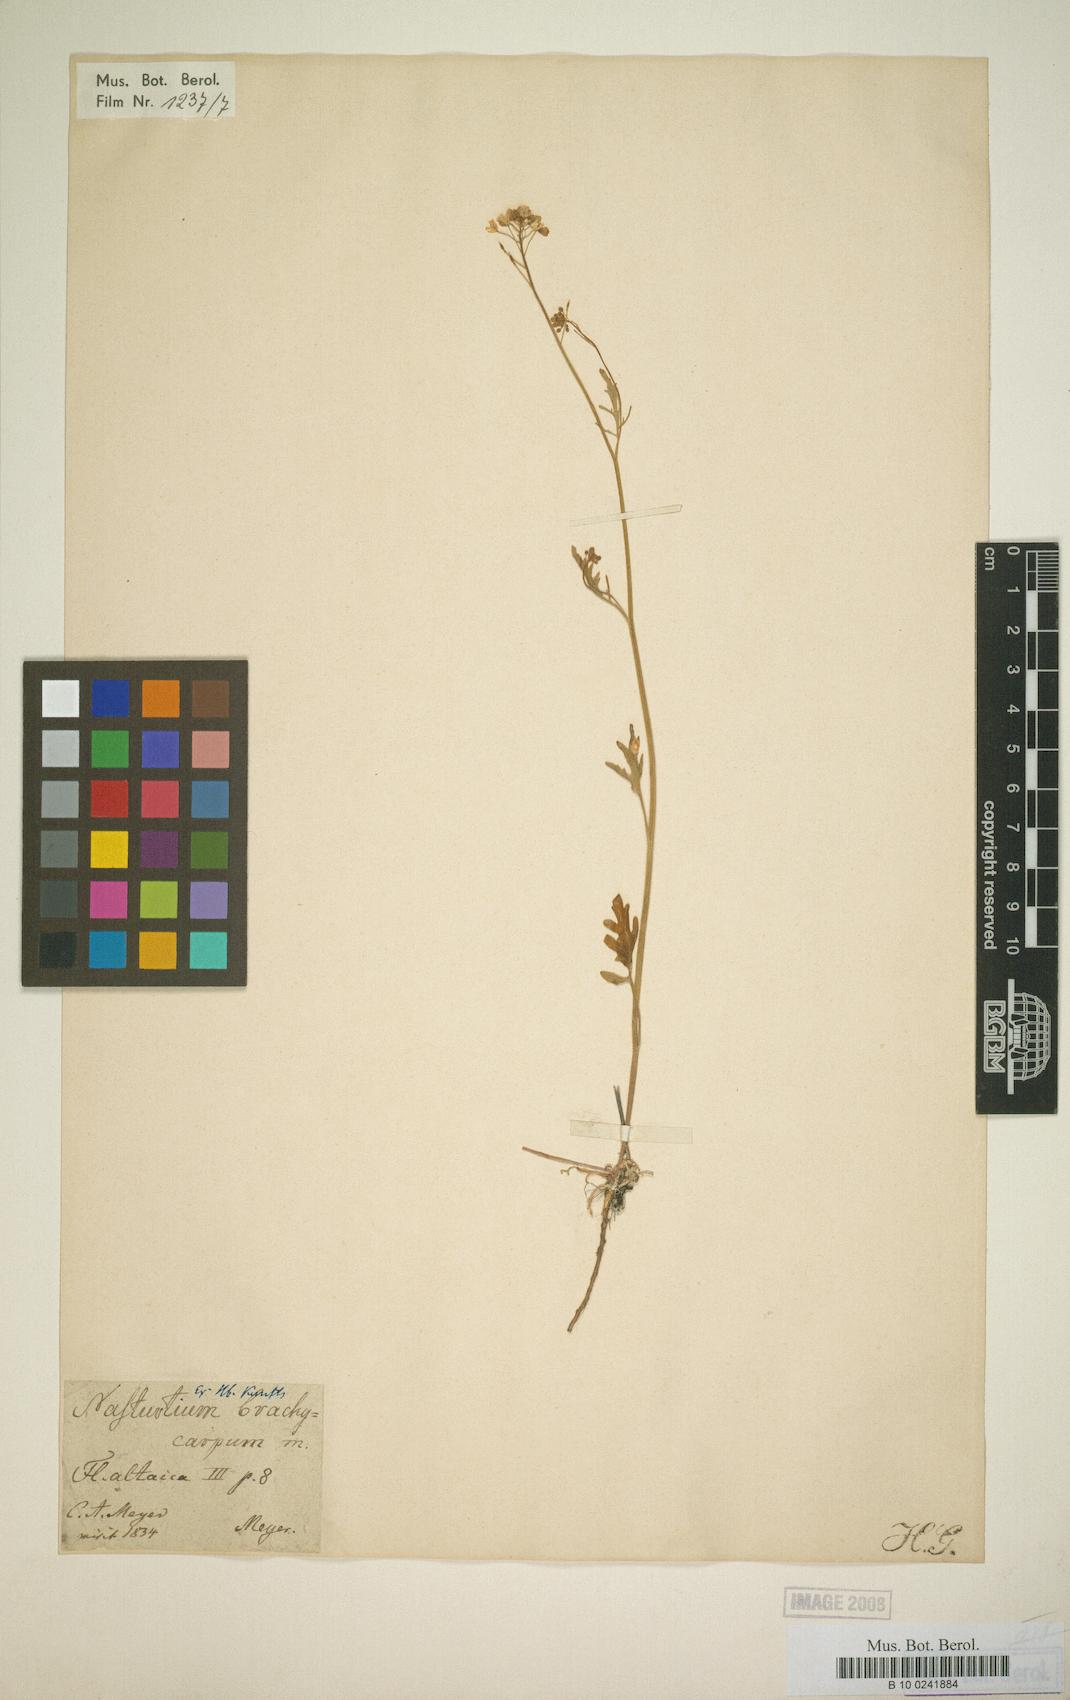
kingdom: Plantae
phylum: Tracheophyta
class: Magnoliopsida
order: Brassicales
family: Brassicaceae
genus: Rorippa
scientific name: Rorippa brachycarpa
